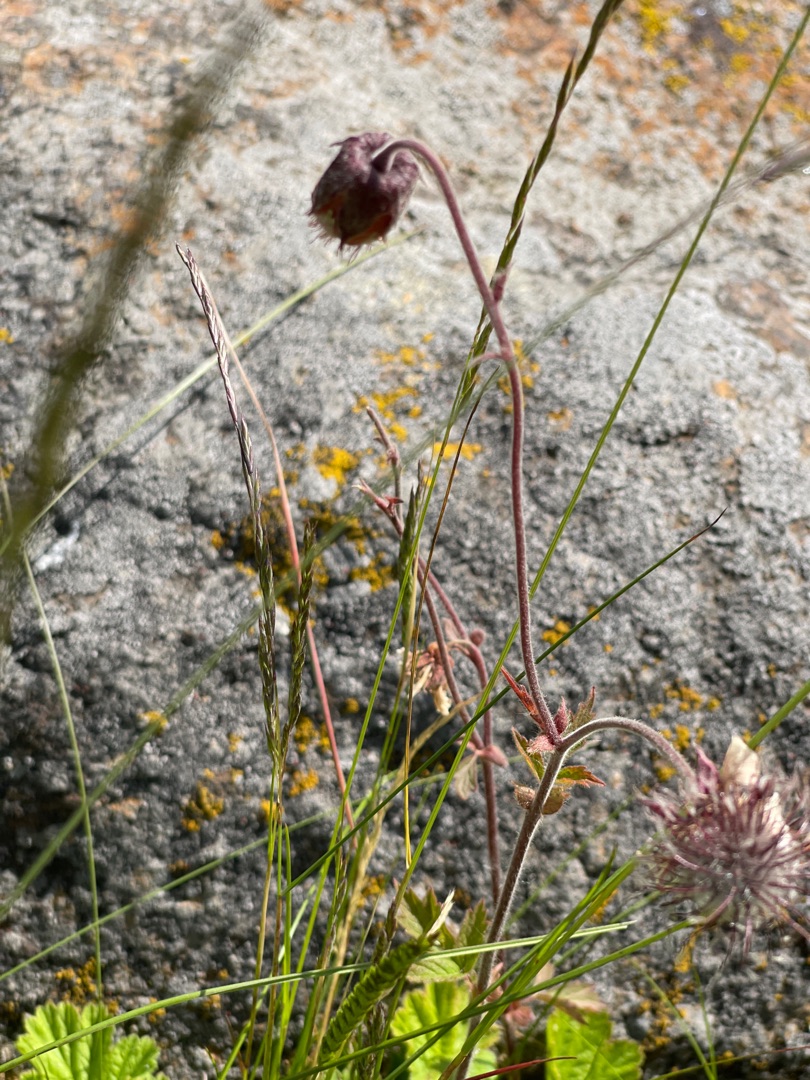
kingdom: Plantae
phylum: Tracheophyta
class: Magnoliopsida
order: Rosales
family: Rosaceae
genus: Geum
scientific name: Geum rivale
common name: Eng-nellikerod
